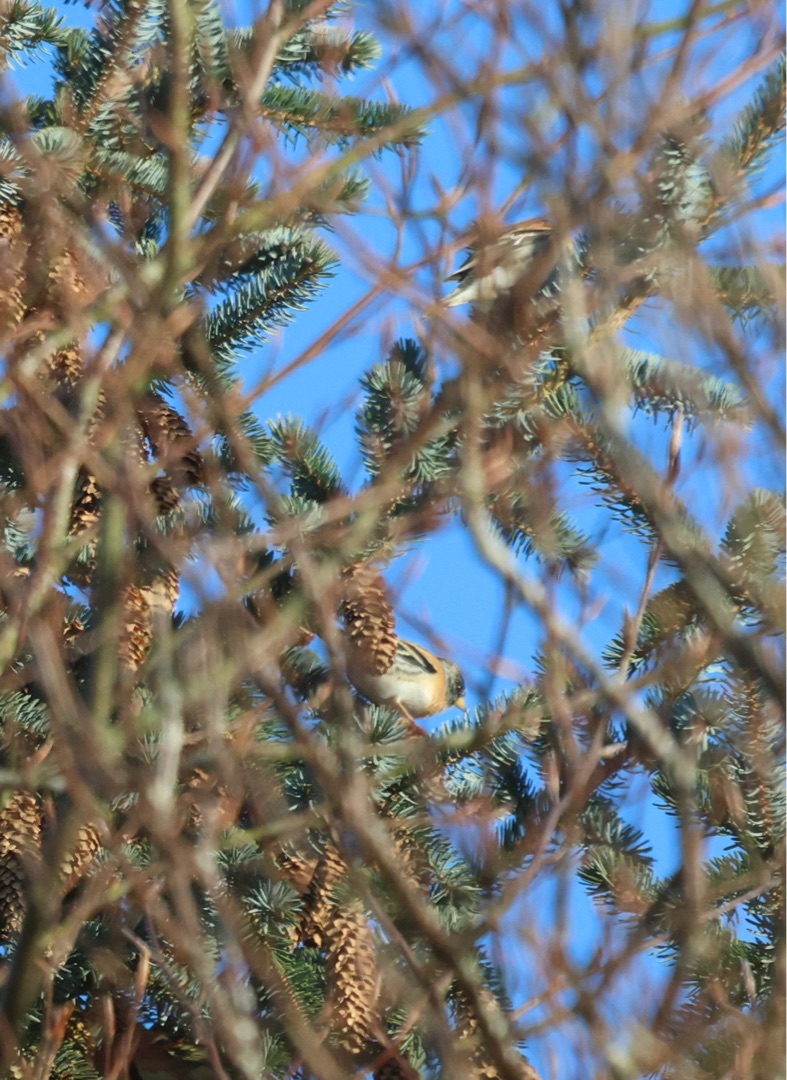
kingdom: Animalia
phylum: Chordata
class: Aves
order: Passeriformes
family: Fringillidae
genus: Fringilla
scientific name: Fringilla montifringilla
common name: Kvækerfinke
